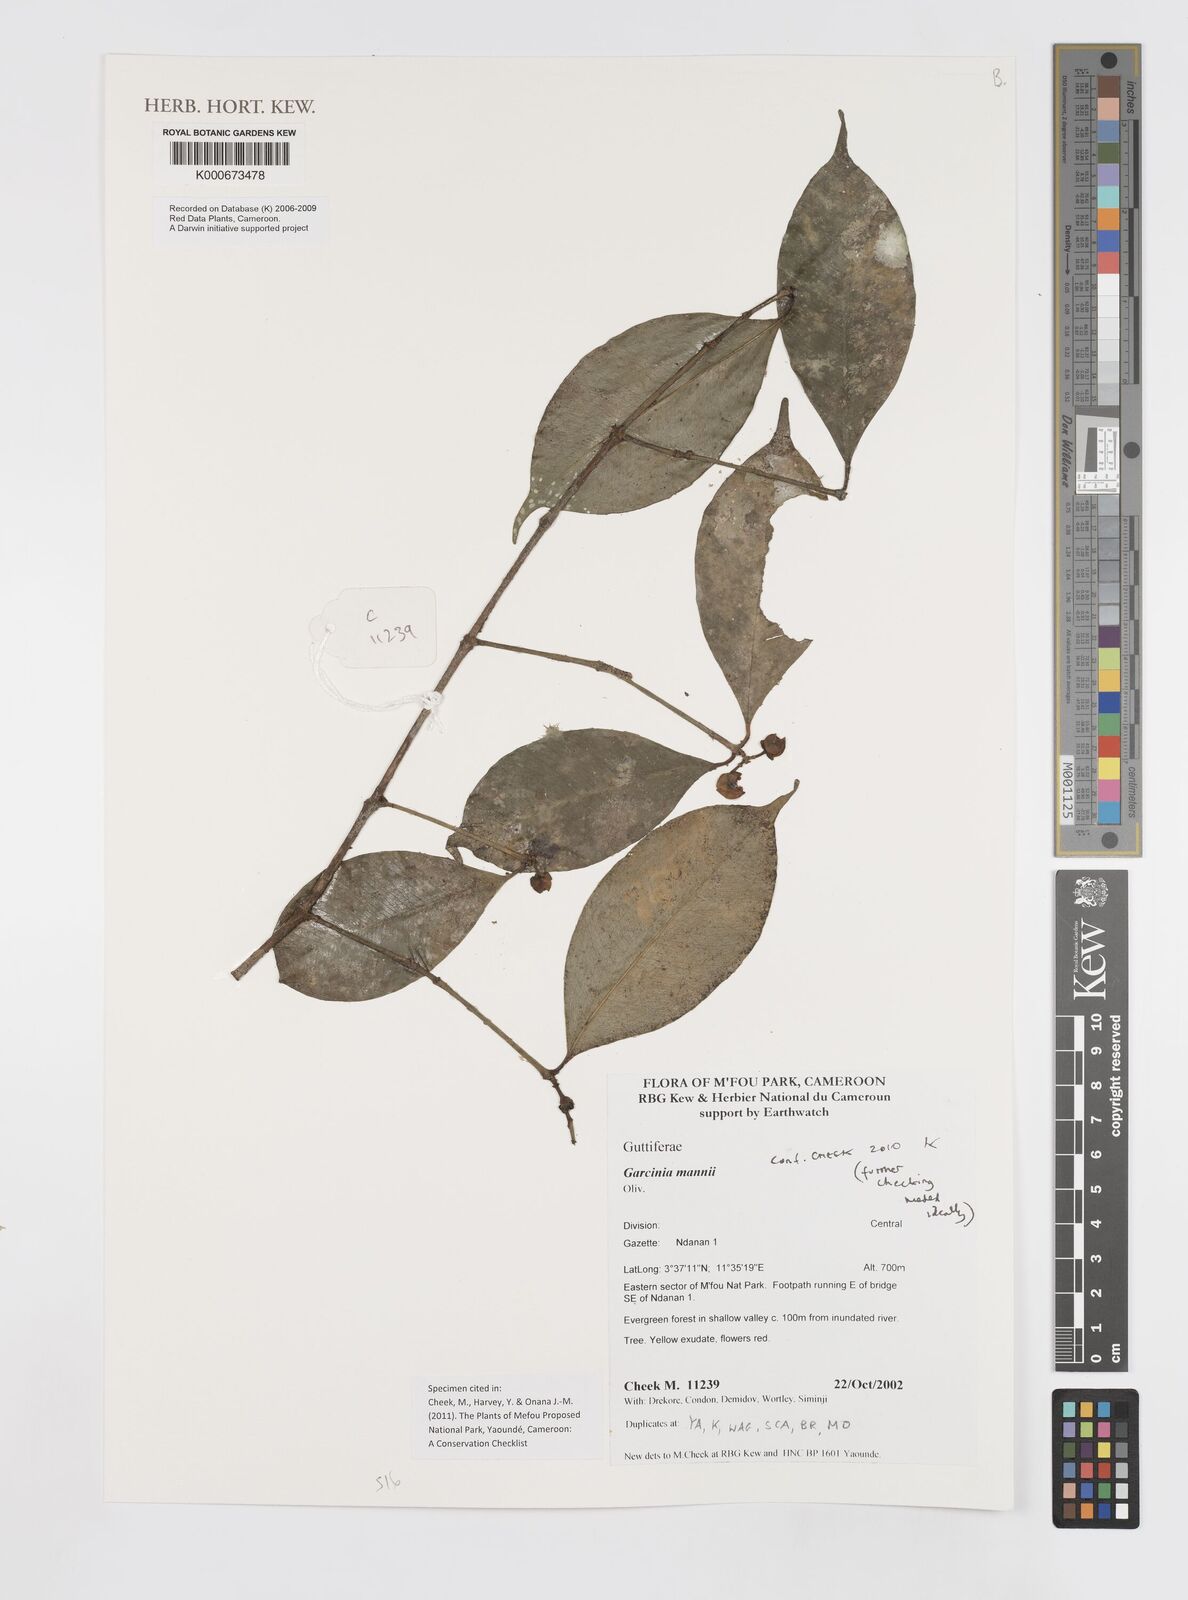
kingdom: Plantae
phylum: Tracheophyta
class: Magnoliopsida
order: Malpighiales
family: Clusiaceae
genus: Garcinia
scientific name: Garcinia mannii
